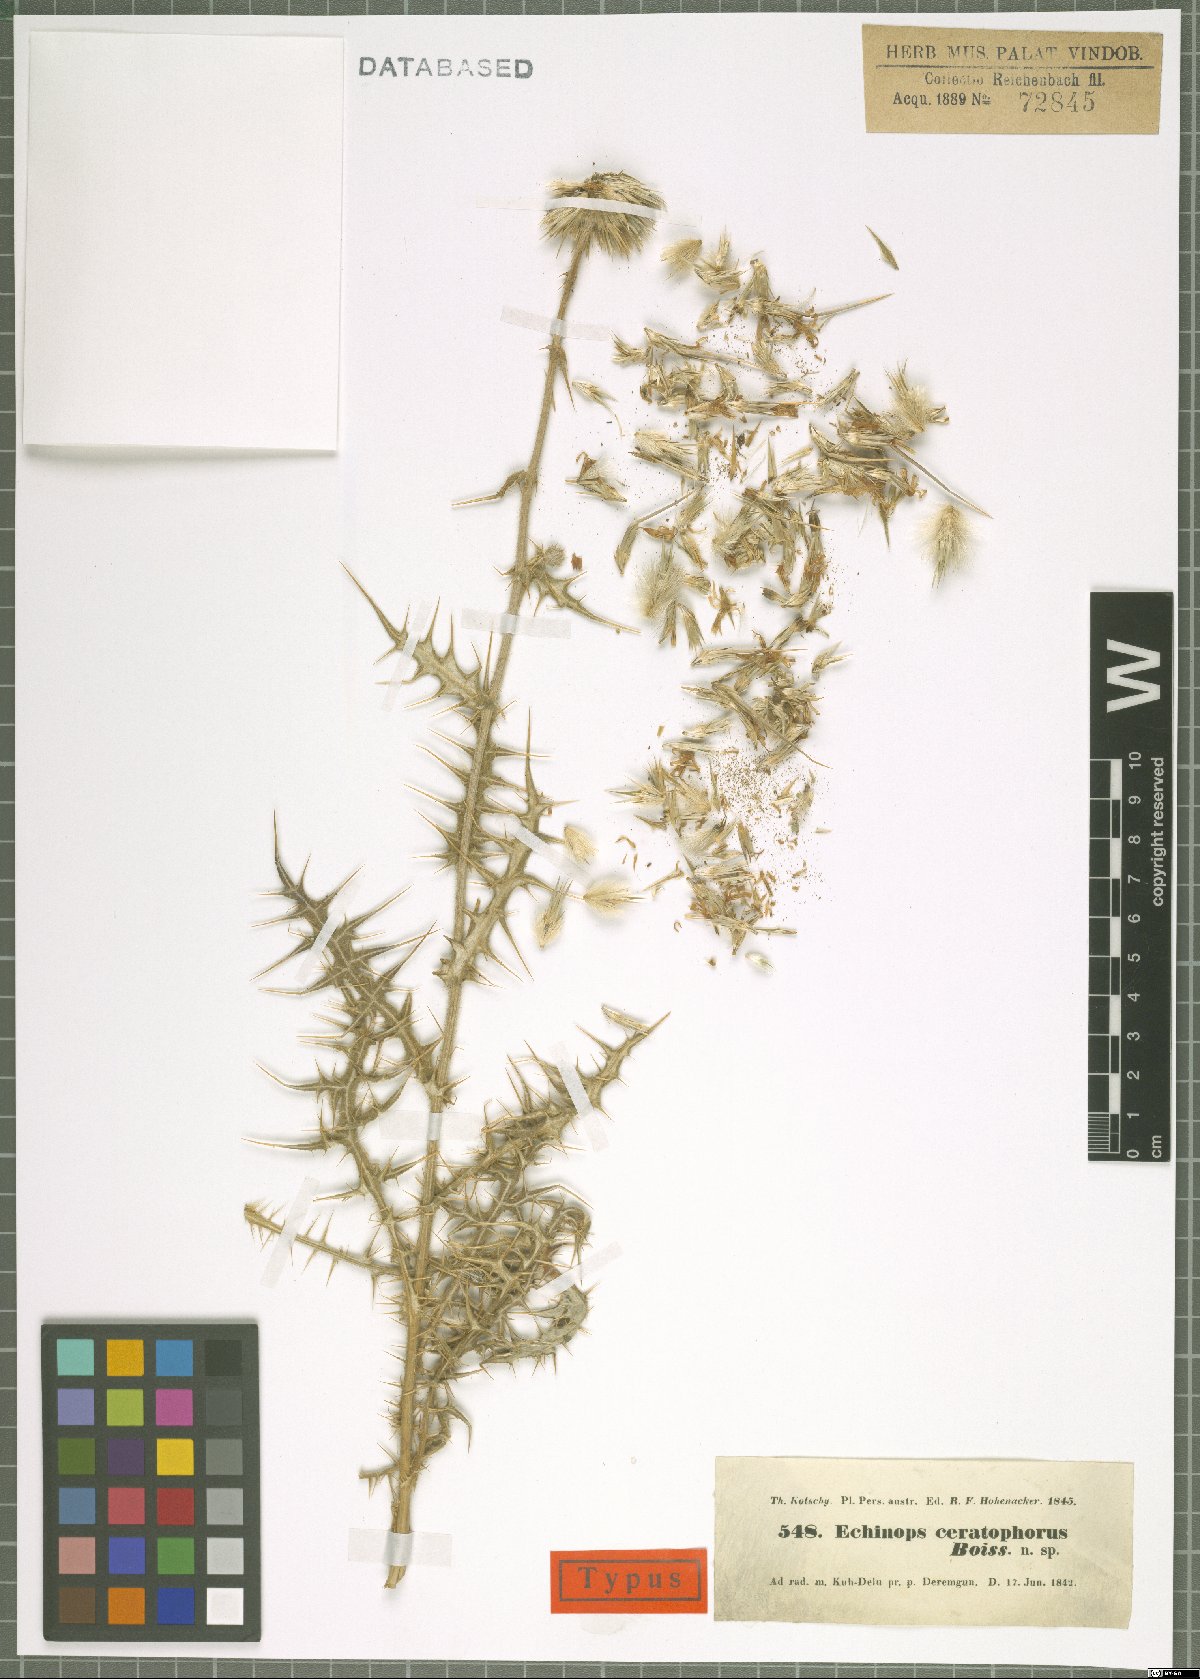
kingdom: Plantae
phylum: Tracheophyta
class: Magnoliopsida
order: Asterales
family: Asteraceae
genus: Echinops
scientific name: Echinops ceratophorus
